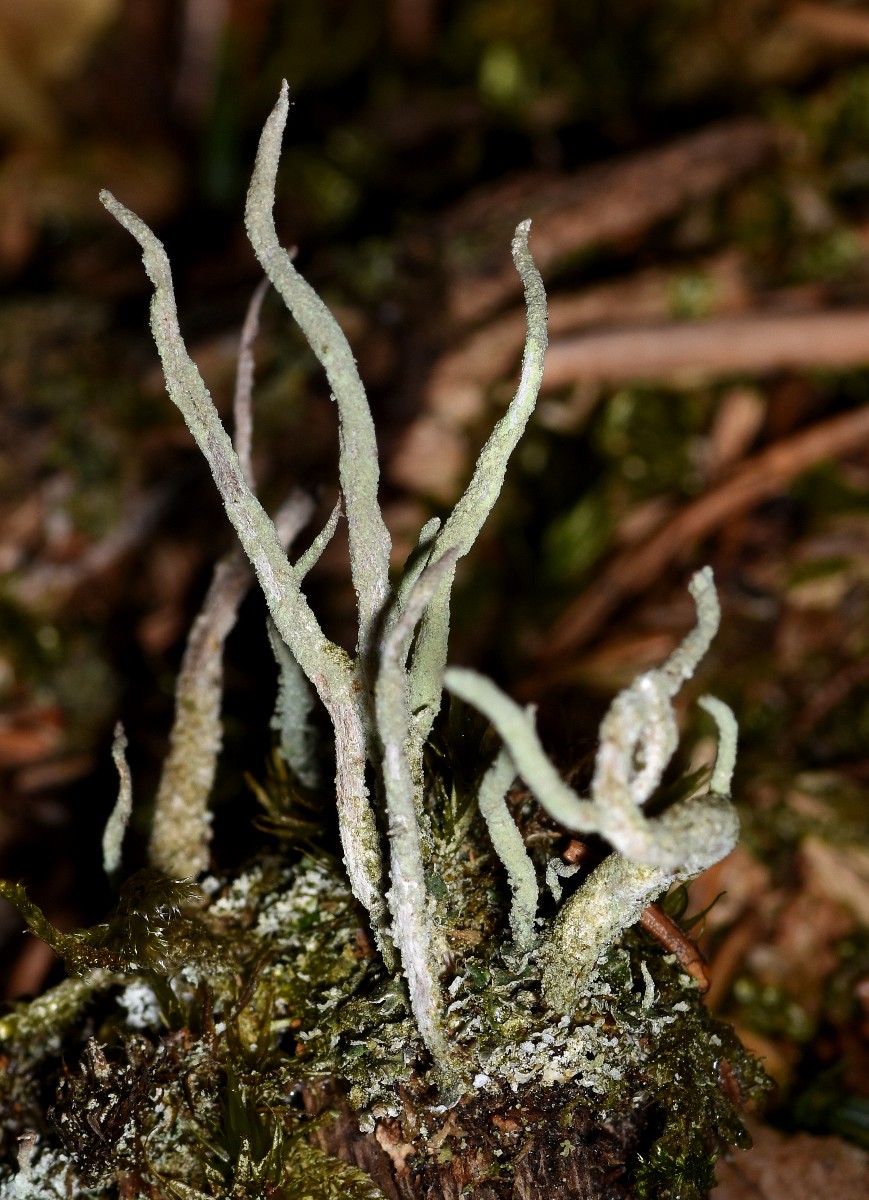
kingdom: Fungi
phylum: Ascomycota
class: Lecanoromycetes
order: Lecanorales
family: Cladoniaceae
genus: Cladonia
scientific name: Cladonia glauca
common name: grågrøn bægerlav
